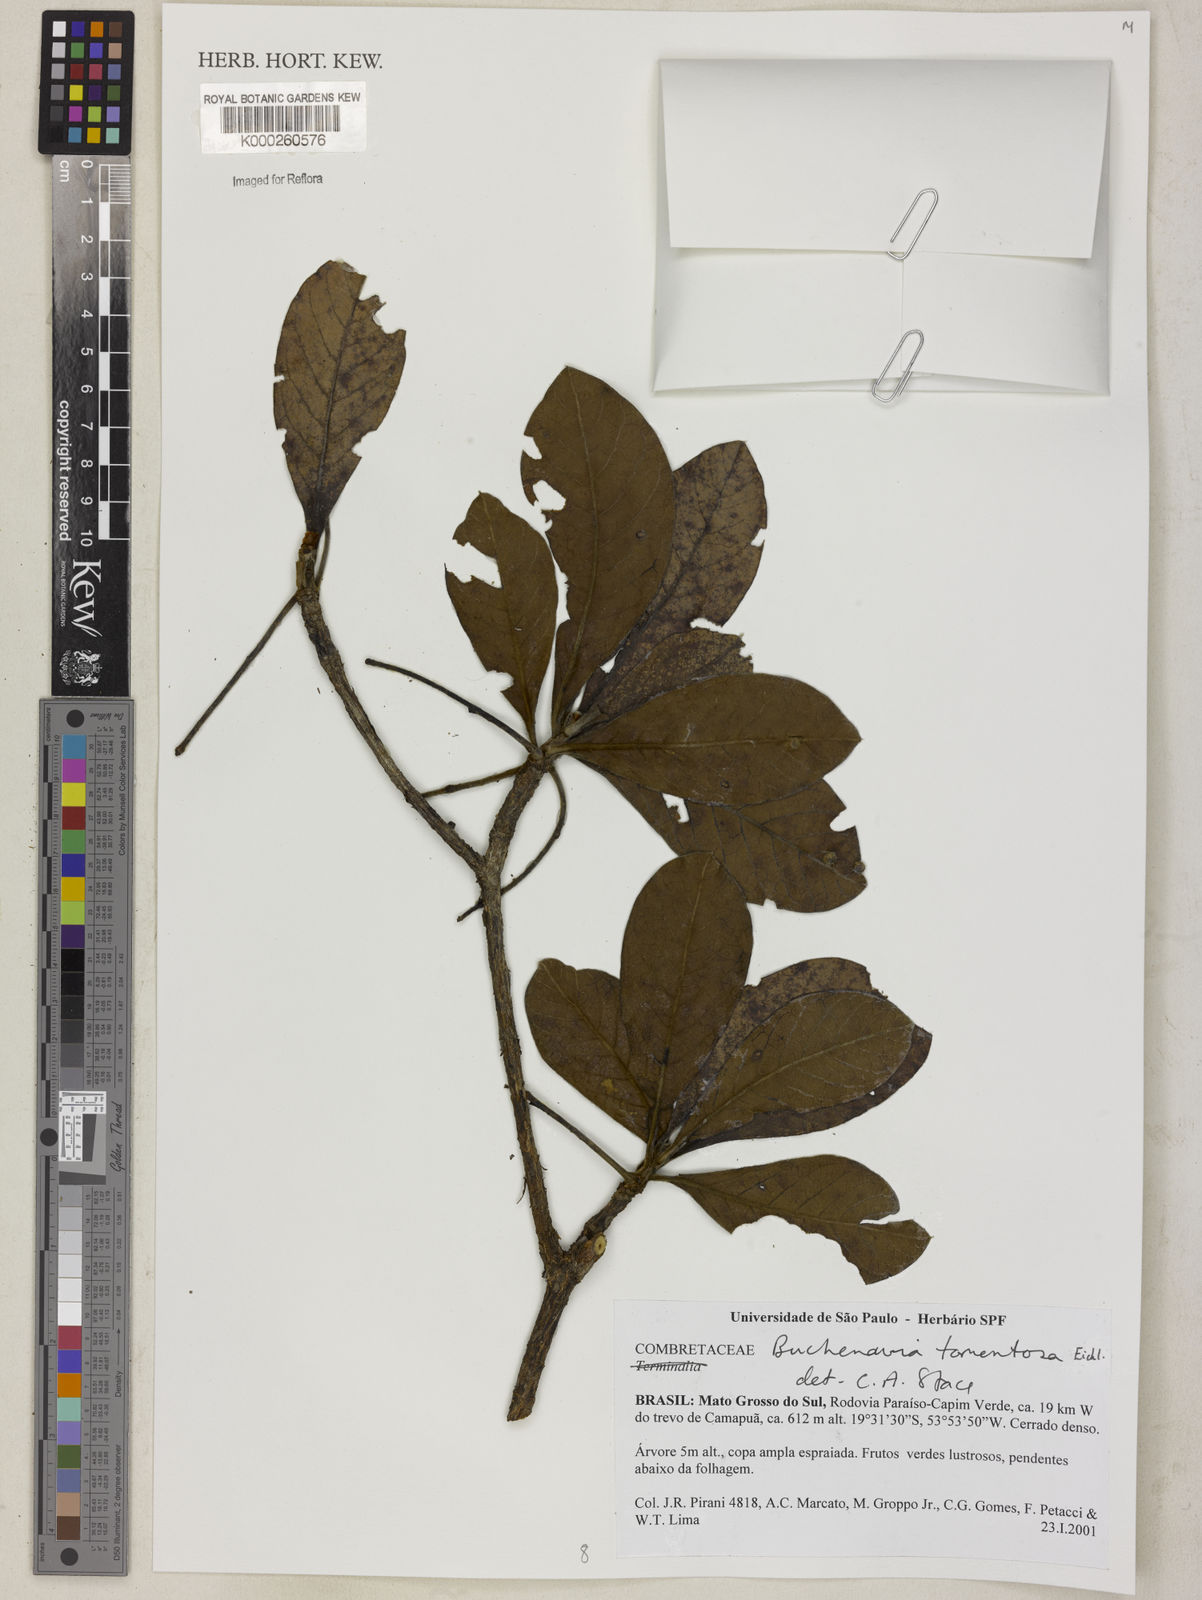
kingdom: Plantae
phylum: Tracheophyta
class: Magnoliopsida
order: Myrtales
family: Combretaceae
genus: Terminalia
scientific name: Terminalia corrugata
